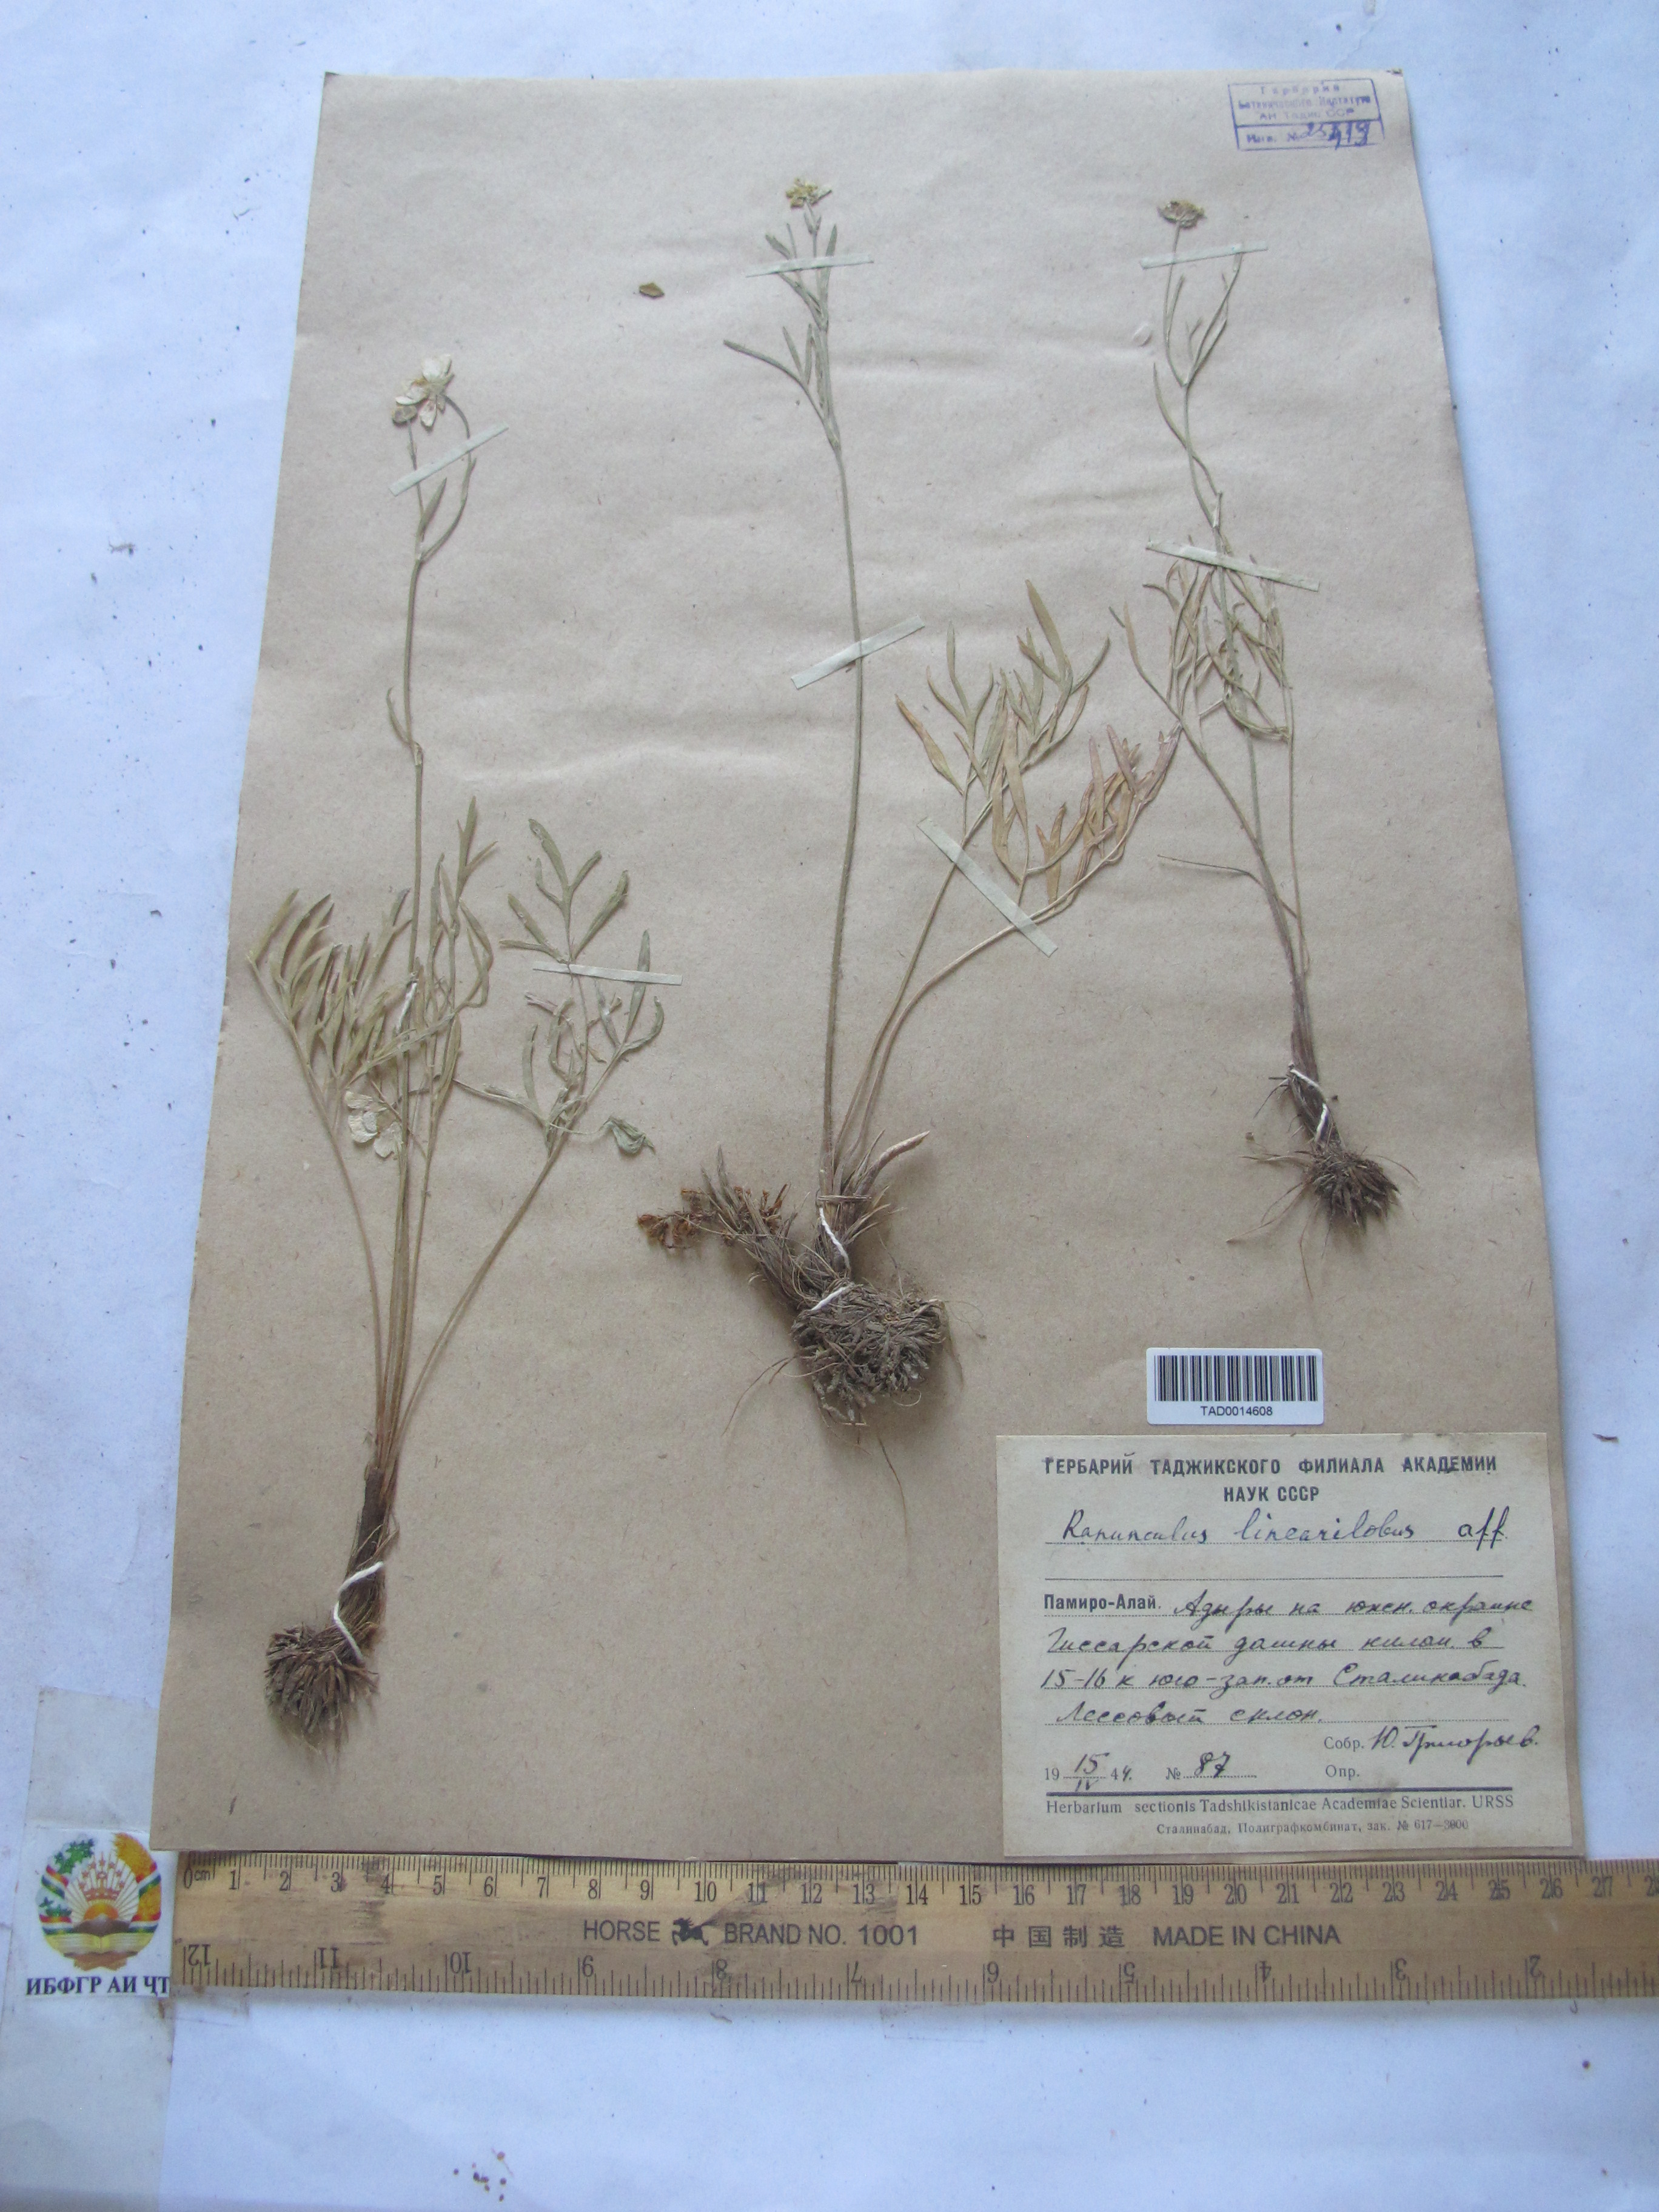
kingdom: Plantae
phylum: Tracheophyta
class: Magnoliopsida
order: Ranunculales
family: Ranunculaceae
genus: Ranunculus
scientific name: Ranunculus linearilobus
